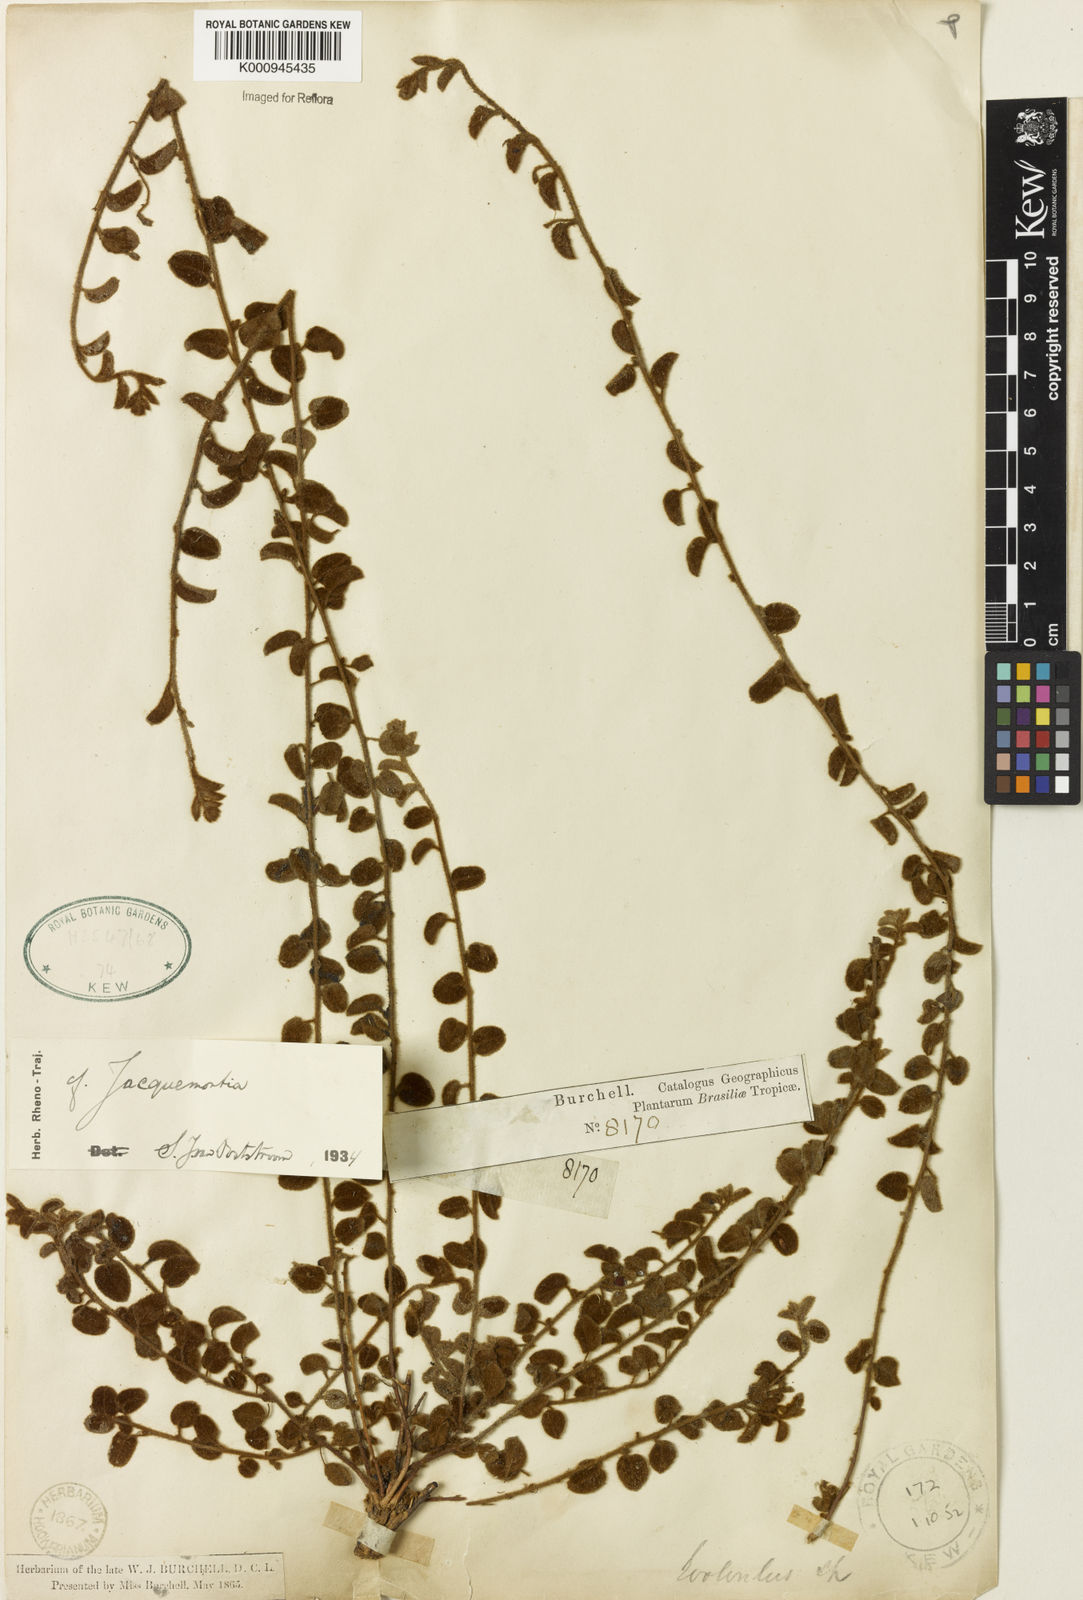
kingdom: Plantae
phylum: Tracheophyta
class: Magnoliopsida
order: Solanales
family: Convolvulaceae
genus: Jacquemontia
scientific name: Jacquemontia
